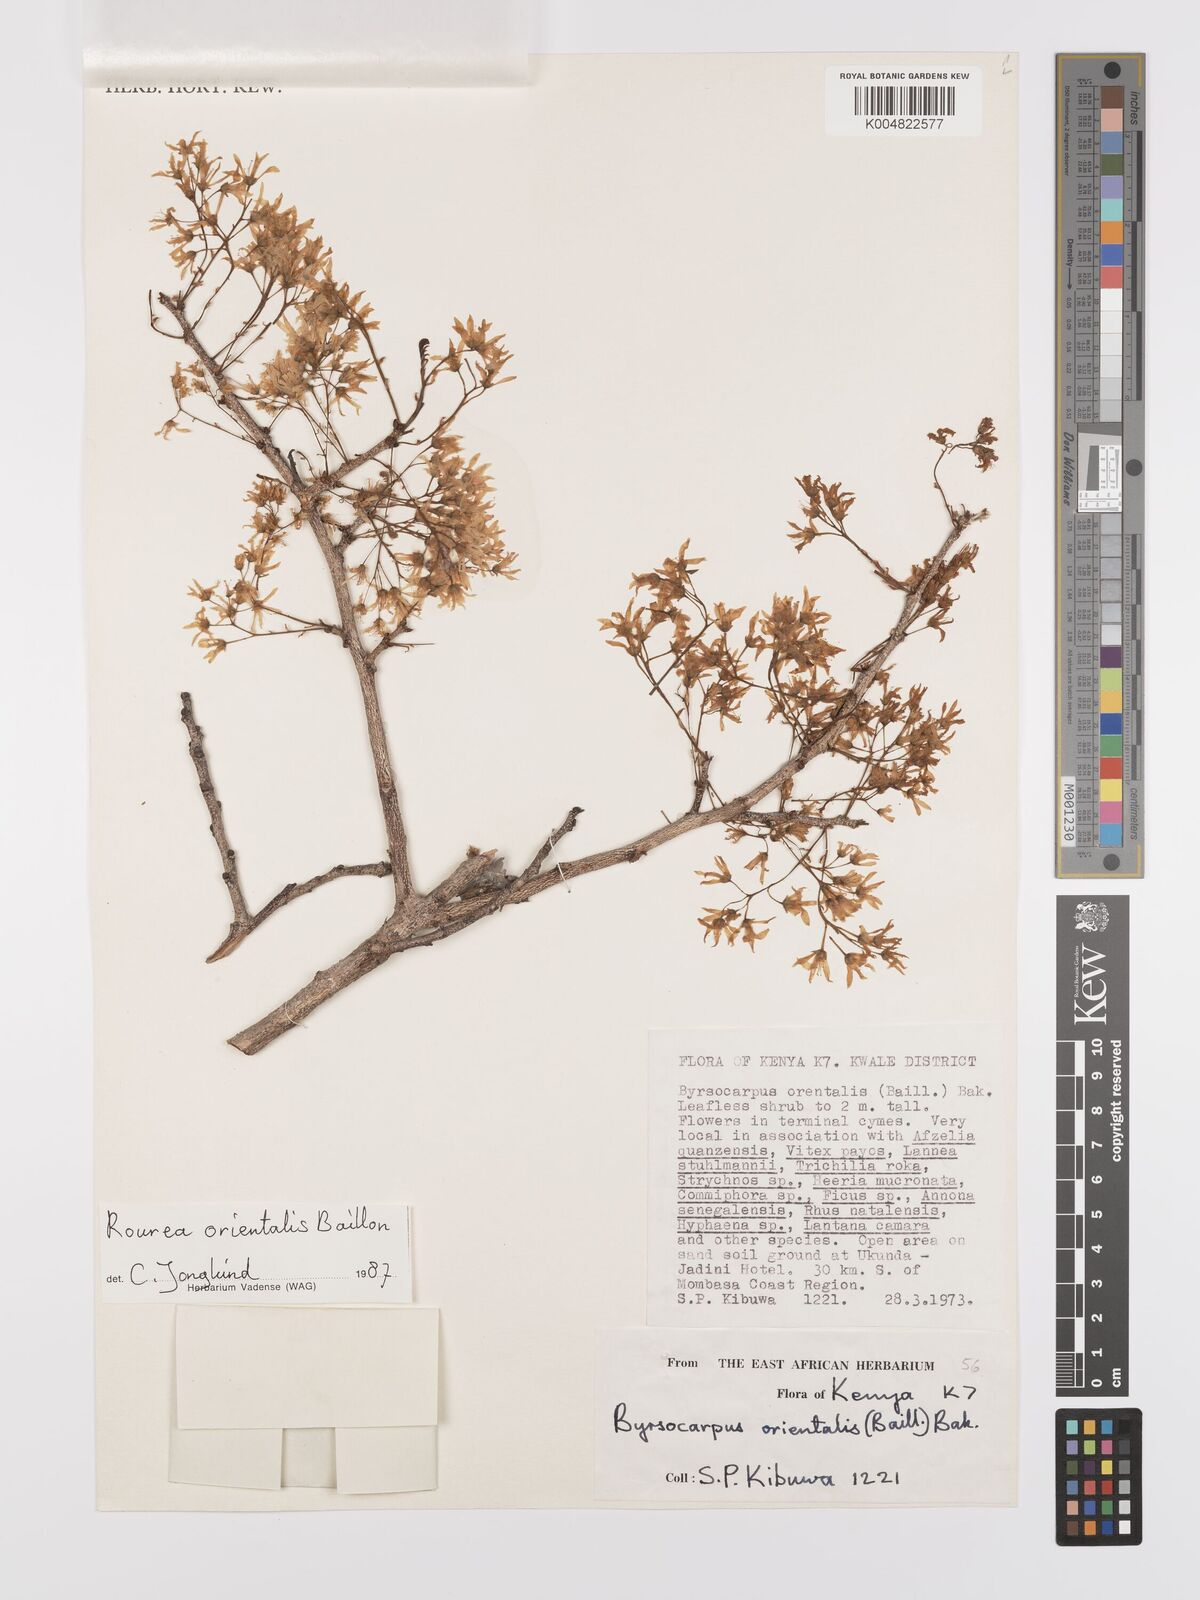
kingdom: Plantae
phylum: Tracheophyta
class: Magnoliopsida
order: Oxalidales
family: Connaraceae
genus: Rourea
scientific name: Rourea orientalis
